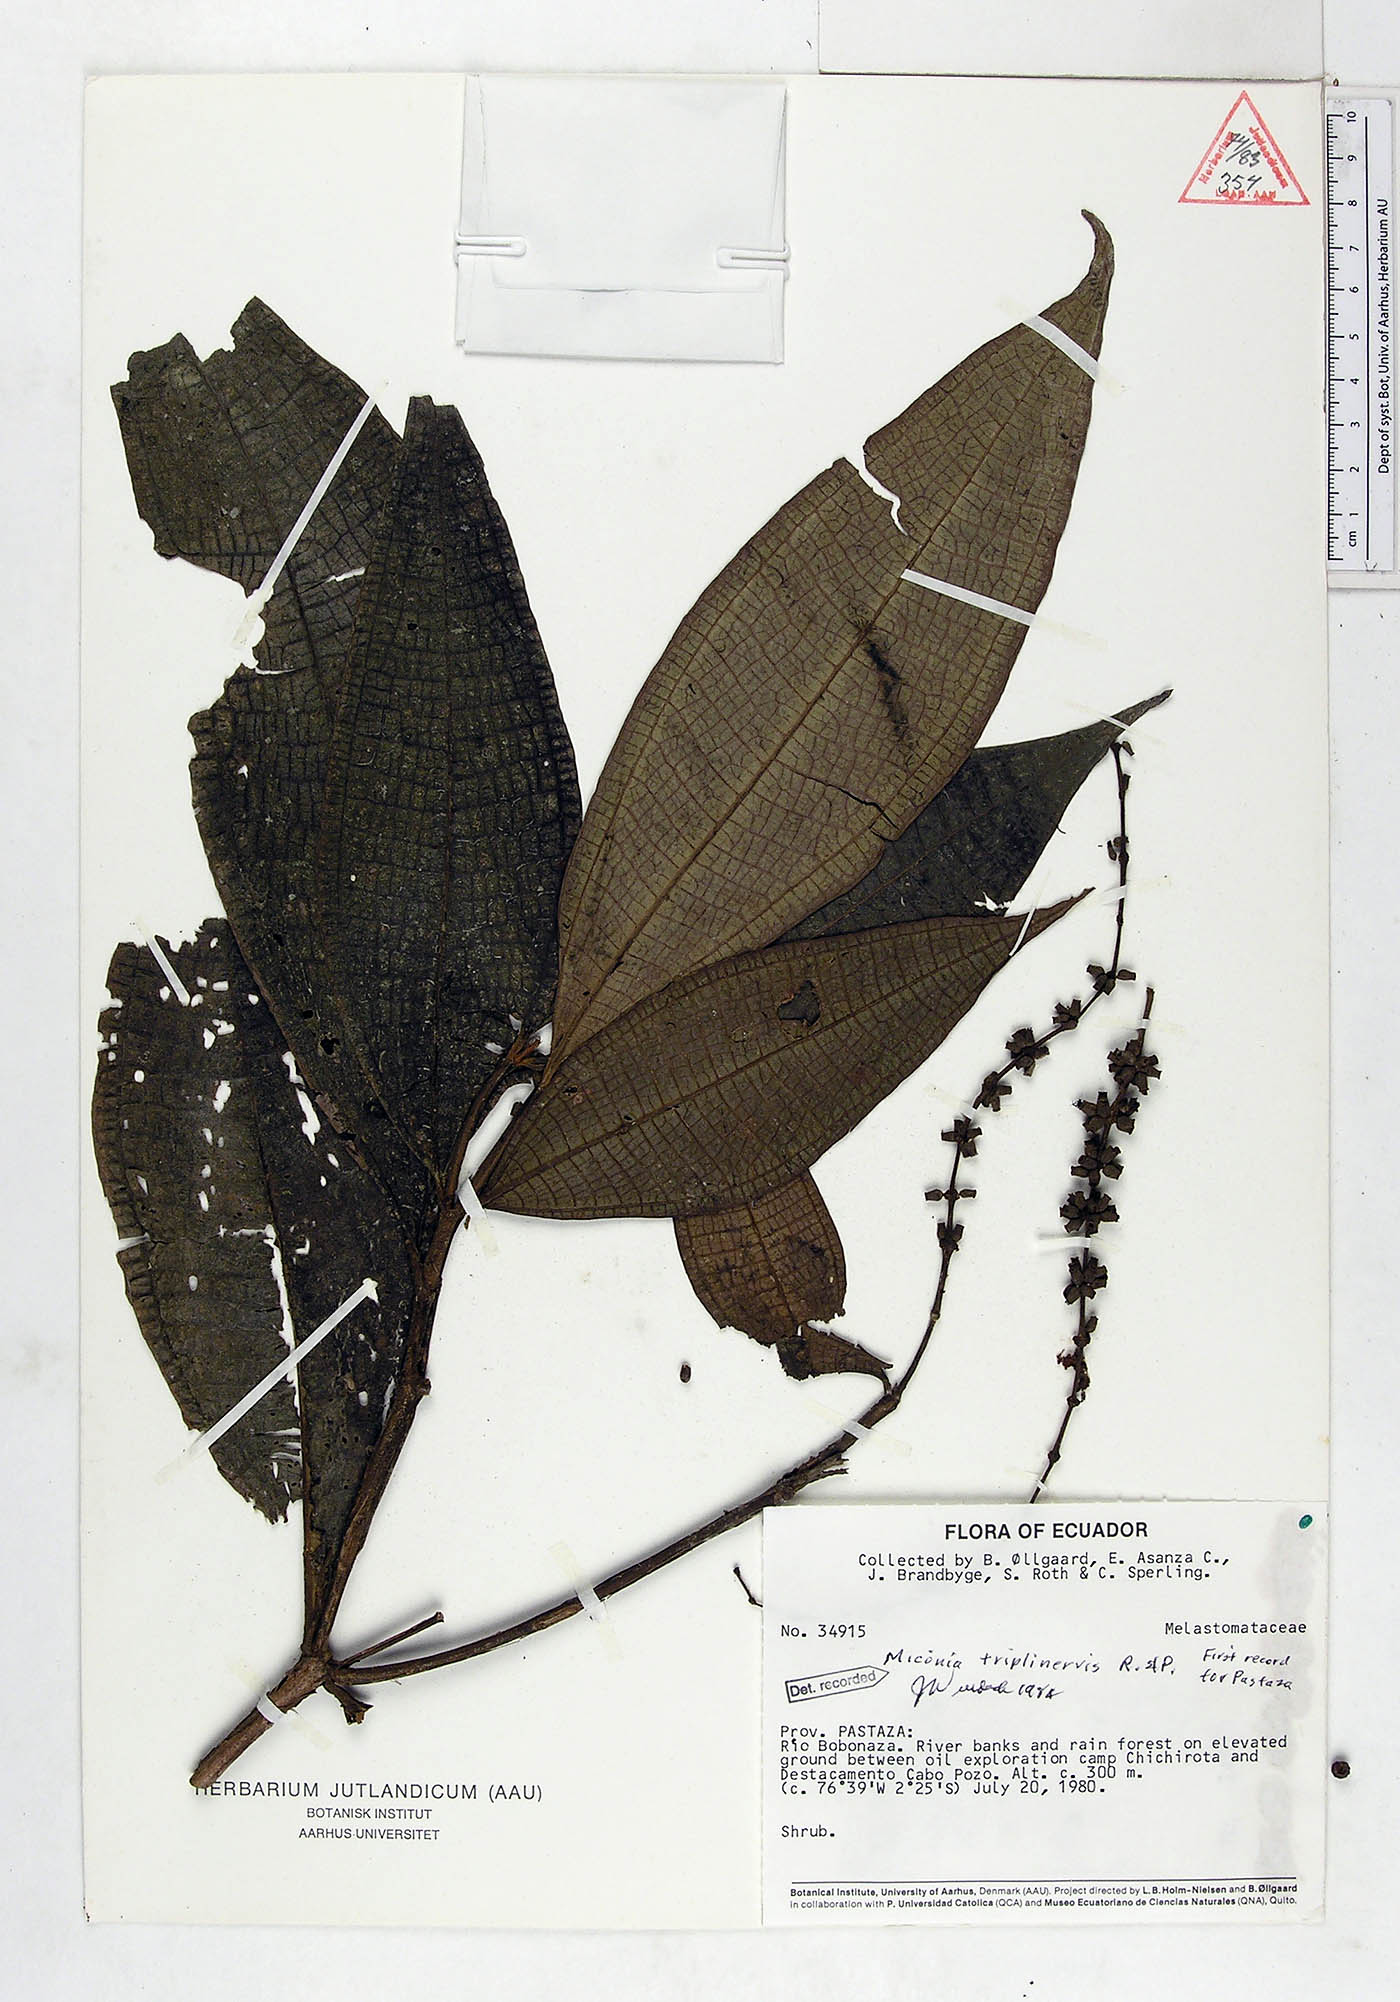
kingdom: Plantae
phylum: Tracheophyta
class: Magnoliopsida
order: Myrtales
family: Melastomataceae
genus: Miconia
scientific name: Miconia triplinervis
